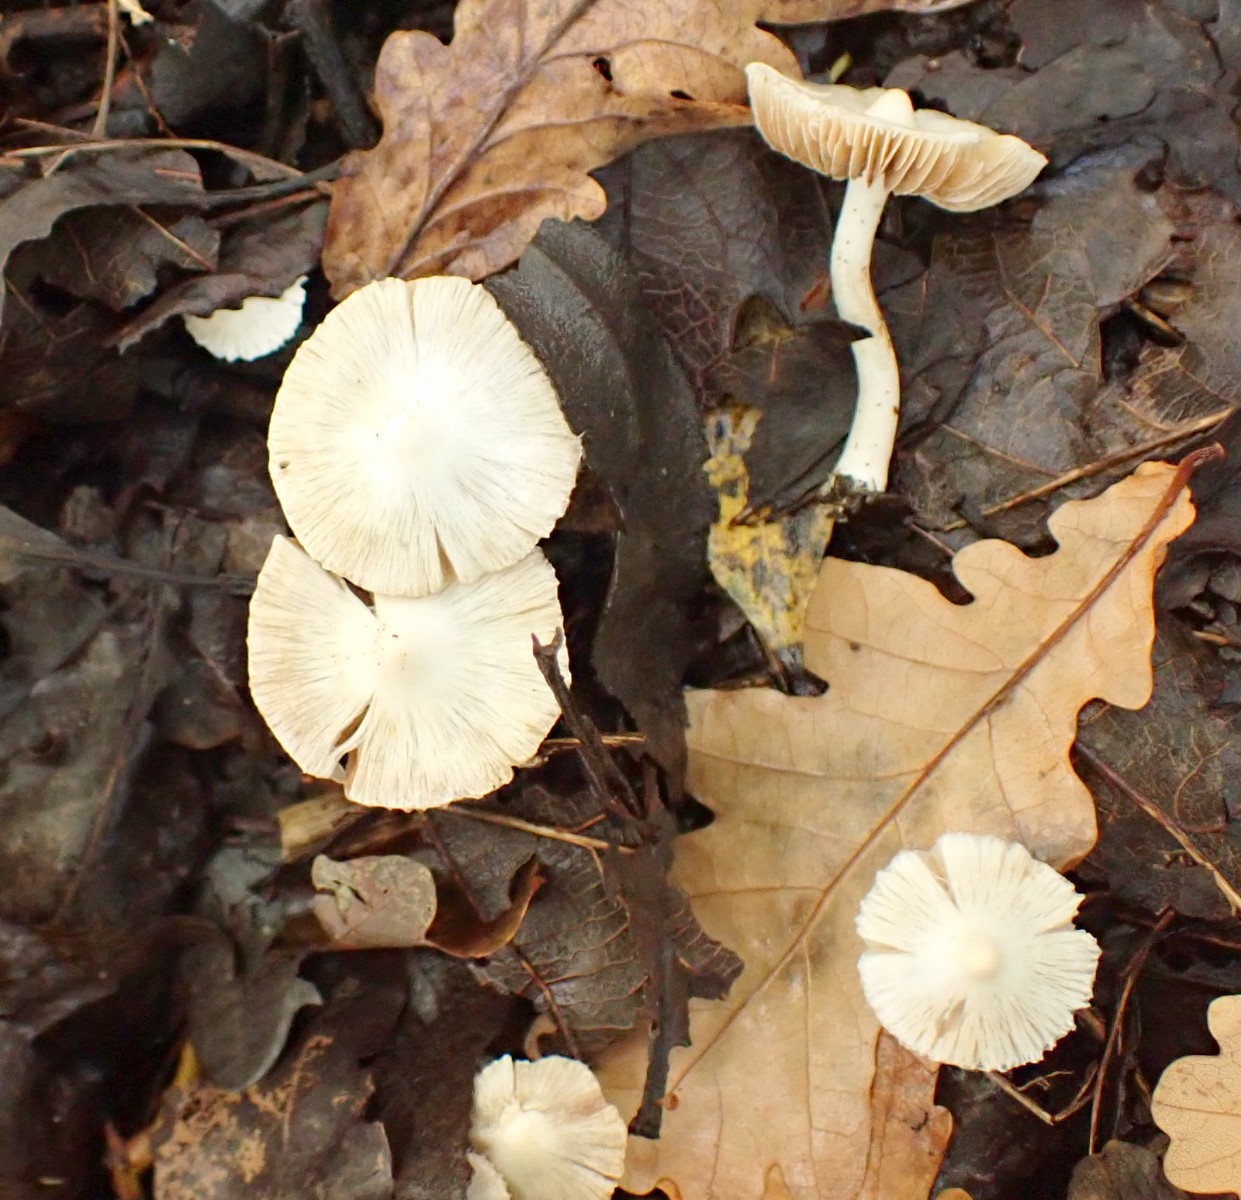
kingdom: Fungi
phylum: Basidiomycota
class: Agaricomycetes
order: Agaricales
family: Inocybaceae
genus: Inocybe
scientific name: Inocybe
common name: almindelig trævlhat
